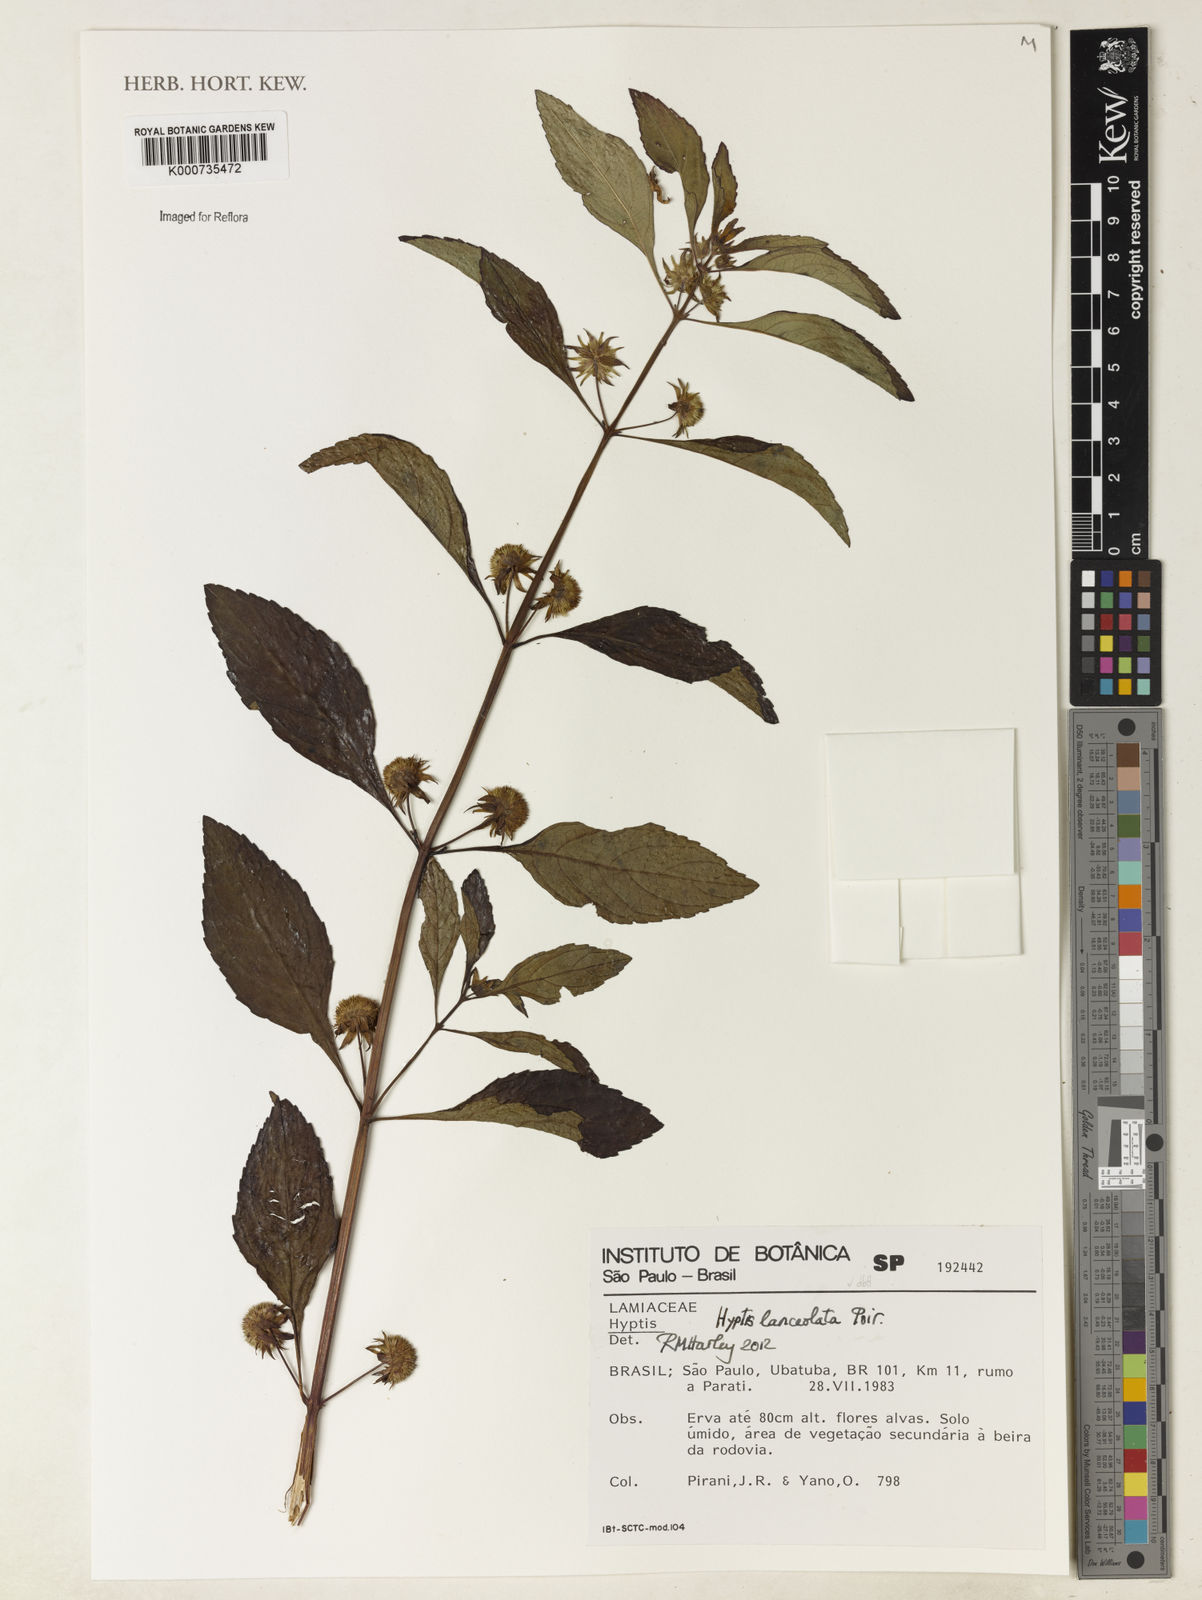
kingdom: Plantae
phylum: Tracheophyta
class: Magnoliopsida
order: Lamiales
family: Lamiaceae
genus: Hyptis
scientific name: Hyptis lanceolata
